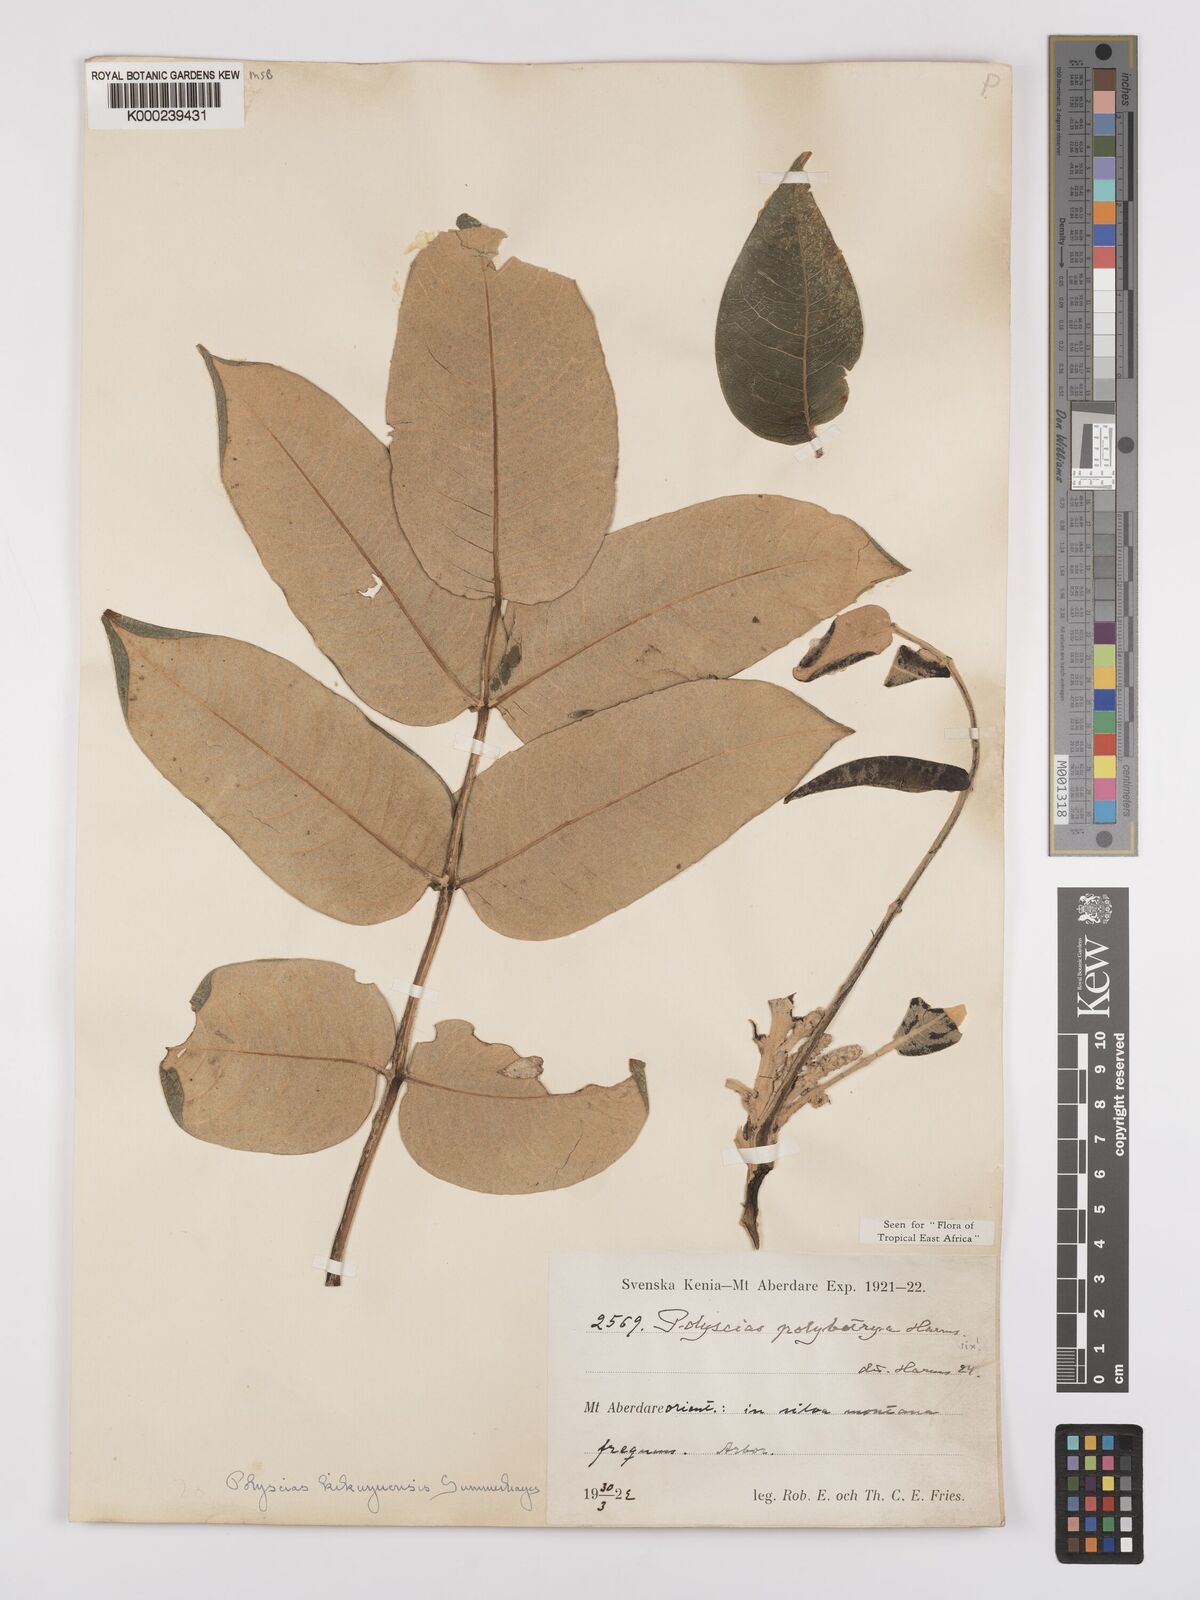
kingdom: Plantae
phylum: Tracheophyta
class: Magnoliopsida
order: Apiales
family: Araliaceae
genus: Polyscias
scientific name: Polyscias kikuyuensis
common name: Parasol tree
